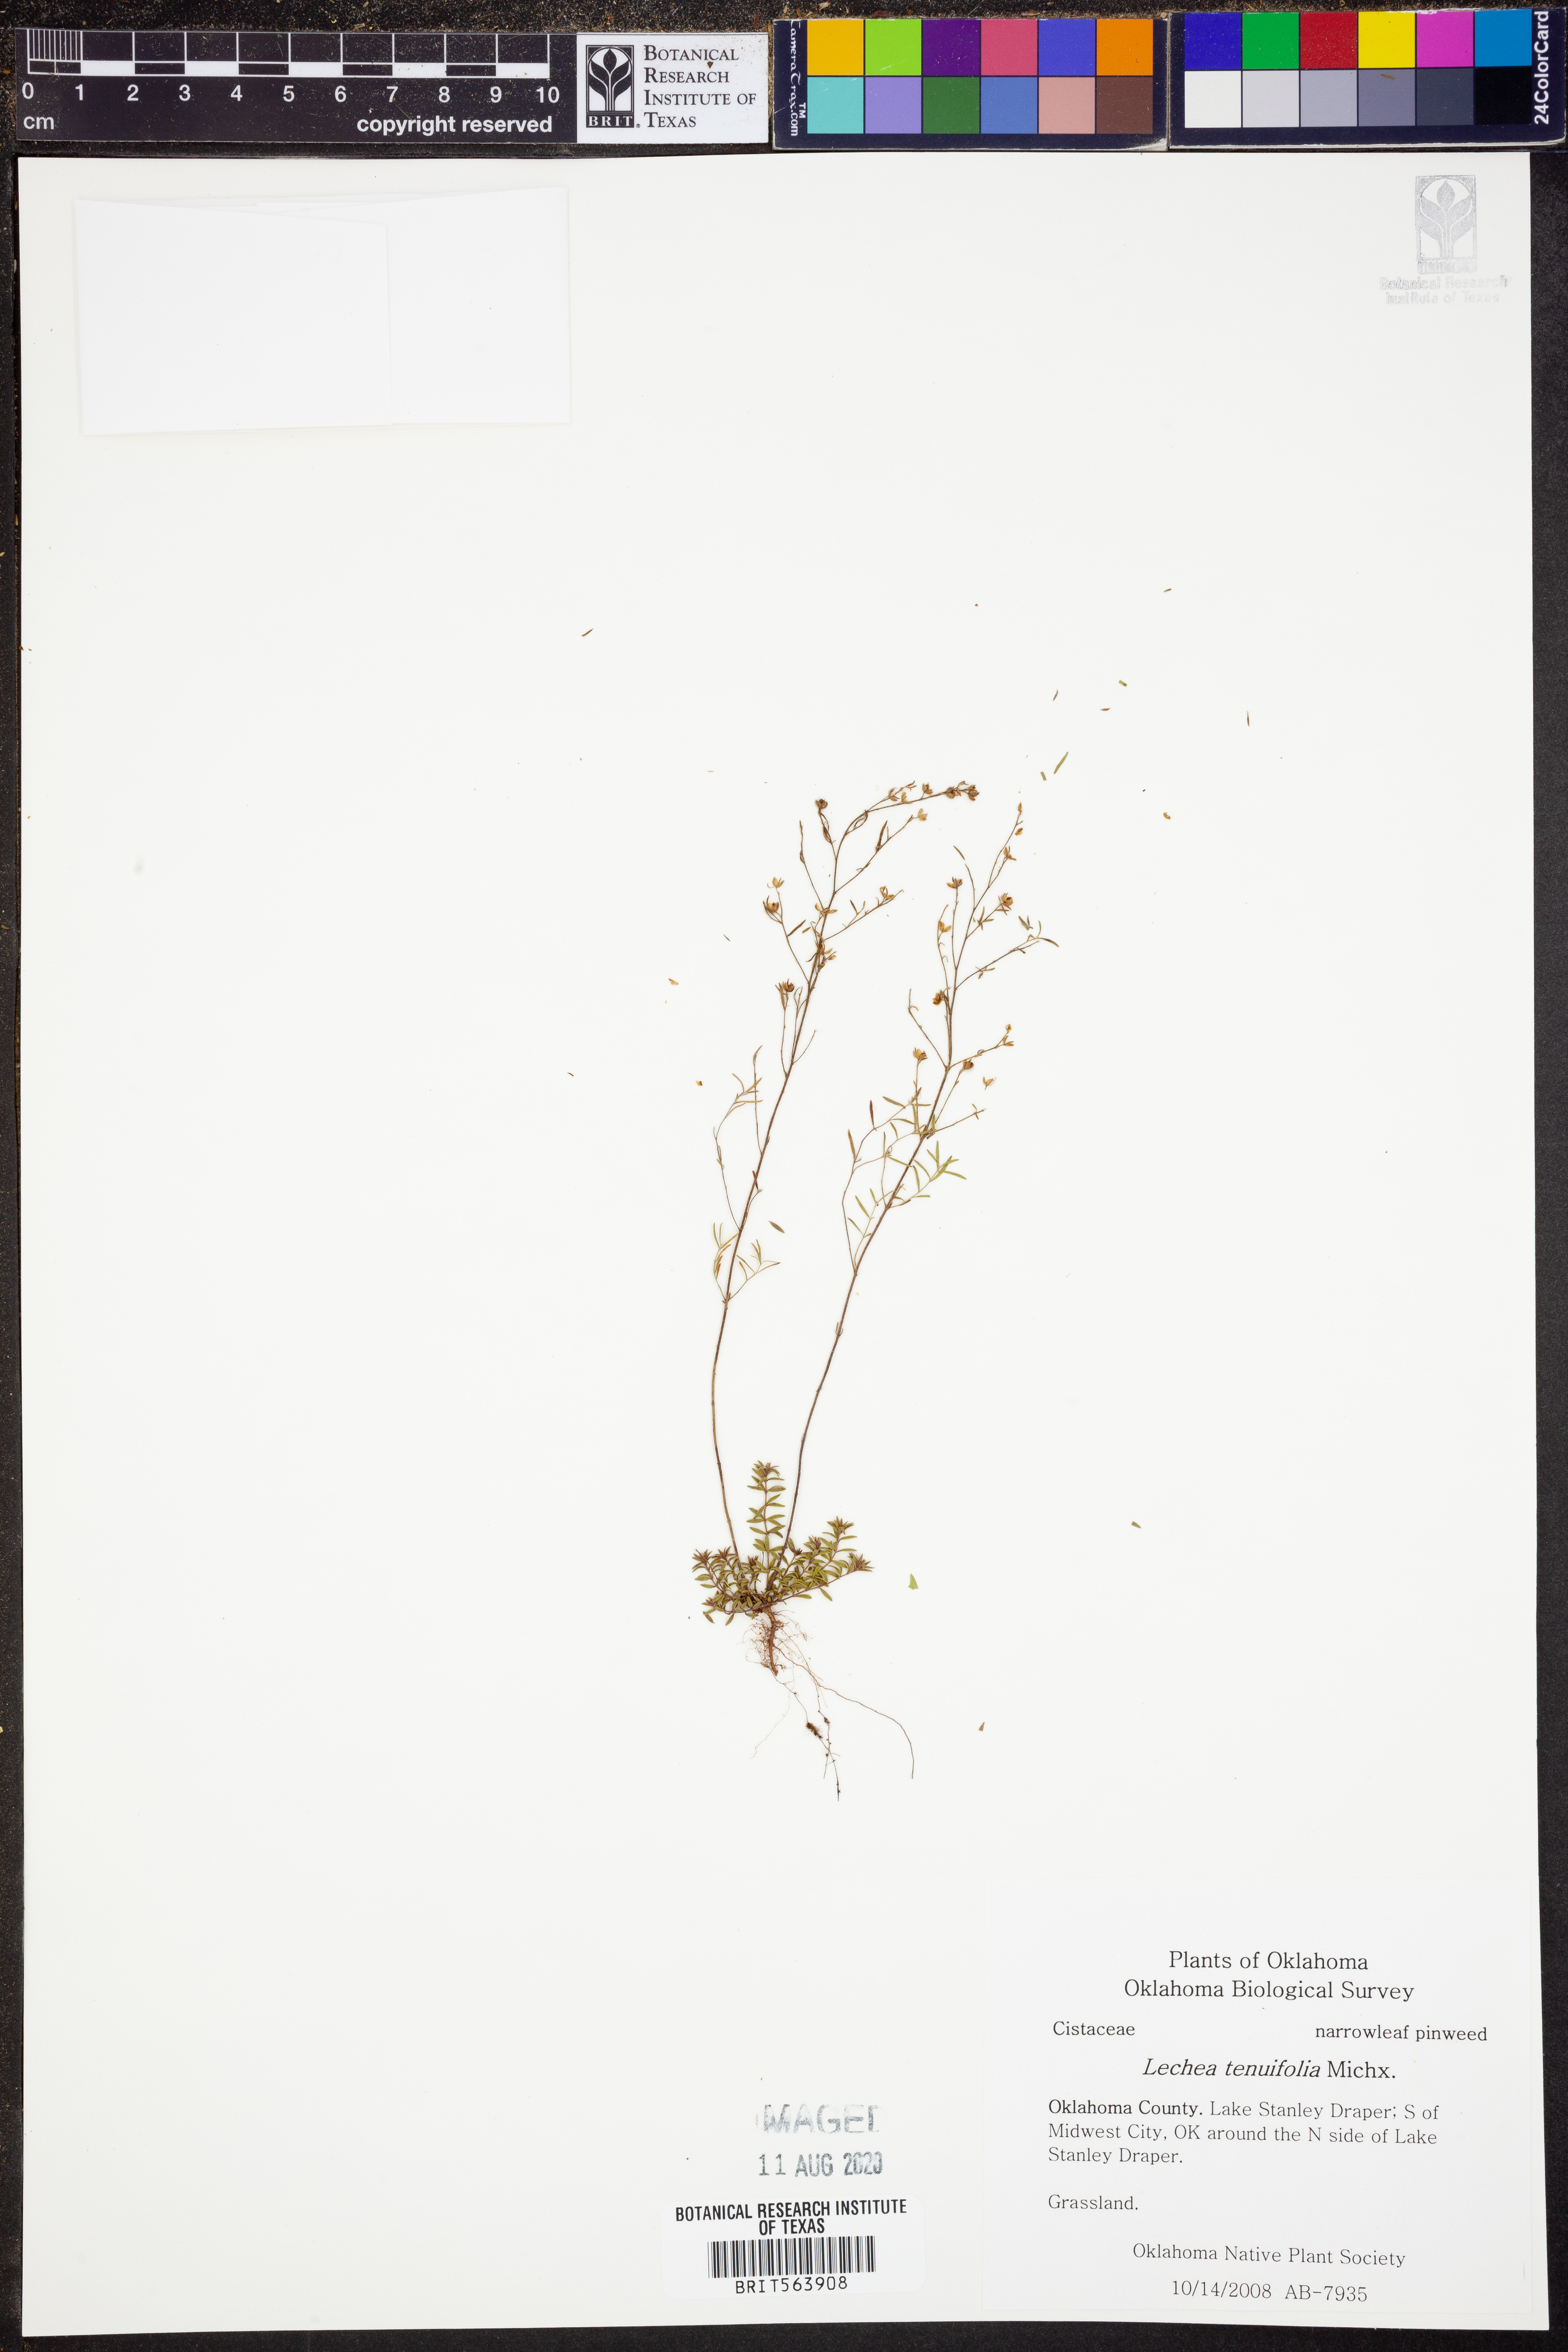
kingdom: Plantae
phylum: Tracheophyta
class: Magnoliopsida
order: Malvales
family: Cistaceae
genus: Lechea
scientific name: Lechea tenuifolia
